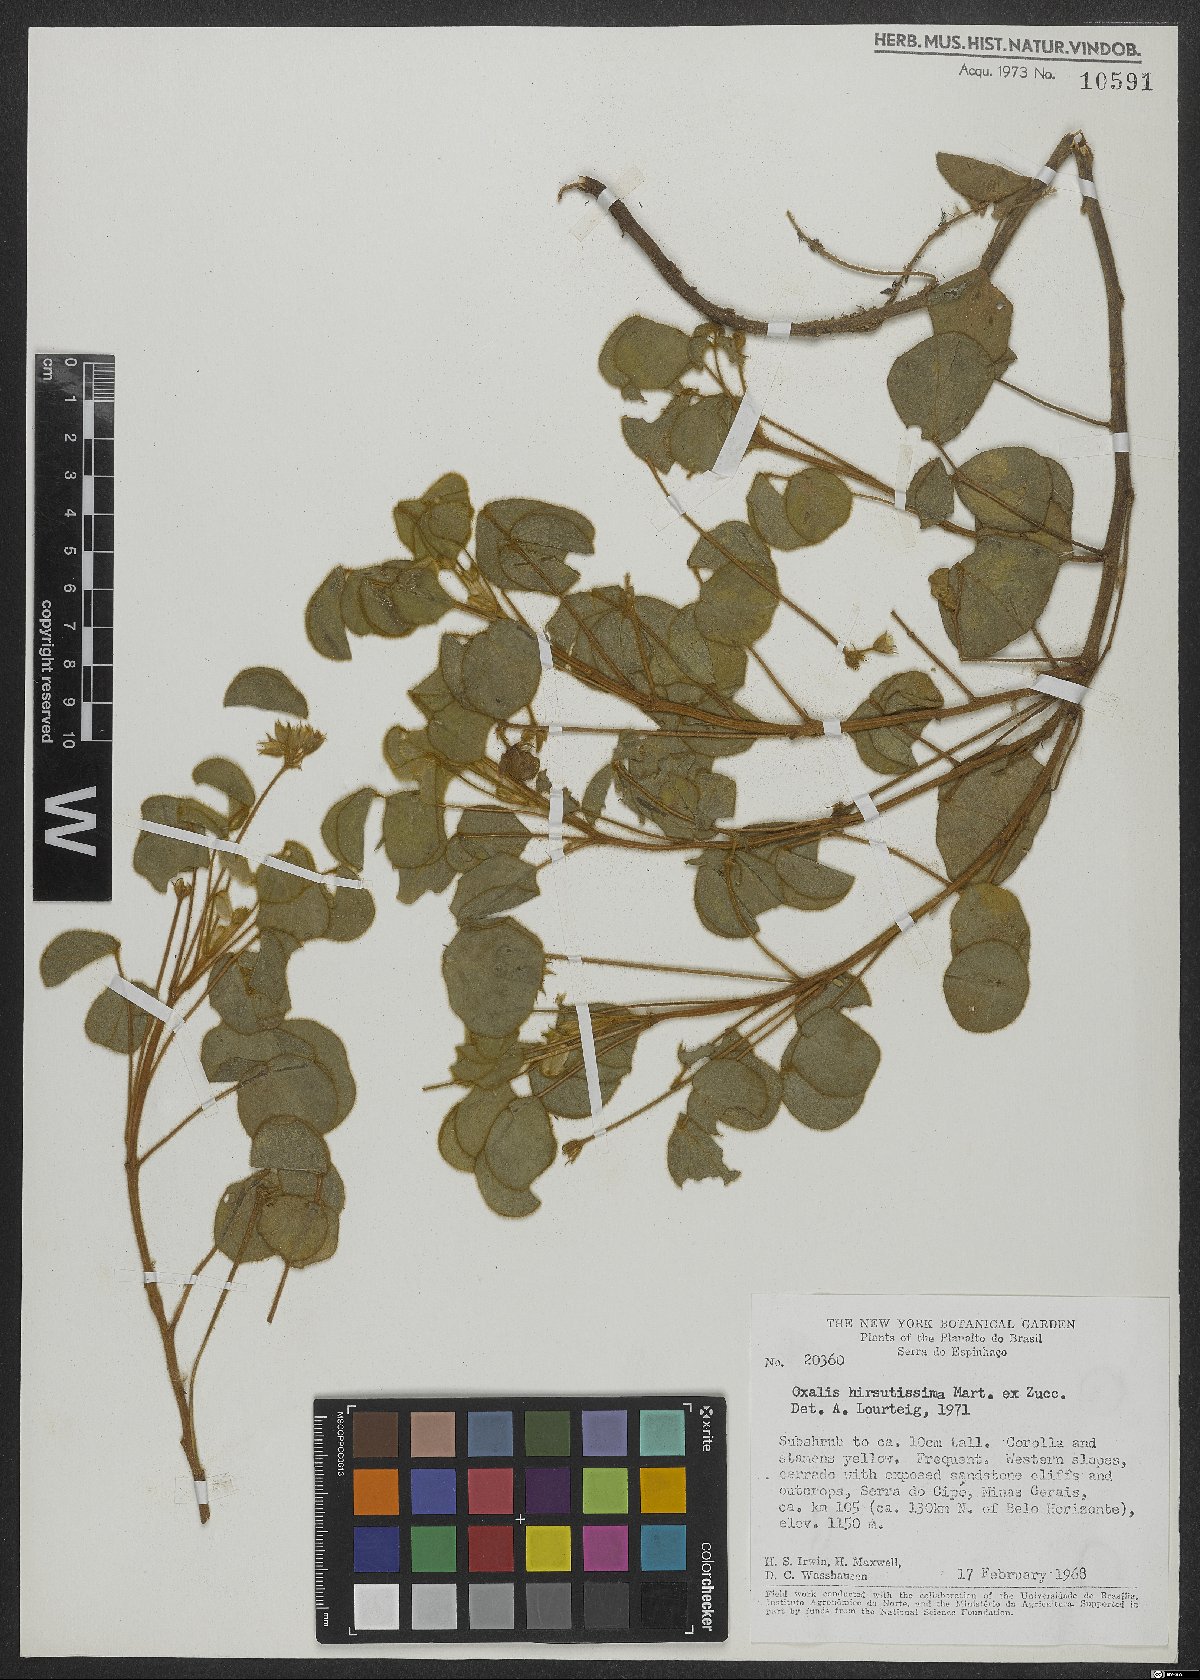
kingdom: Plantae
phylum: Tracheophyta
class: Magnoliopsida
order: Oxalidales
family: Oxalidaceae
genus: Oxalis
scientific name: Oxalis hirsutissima
